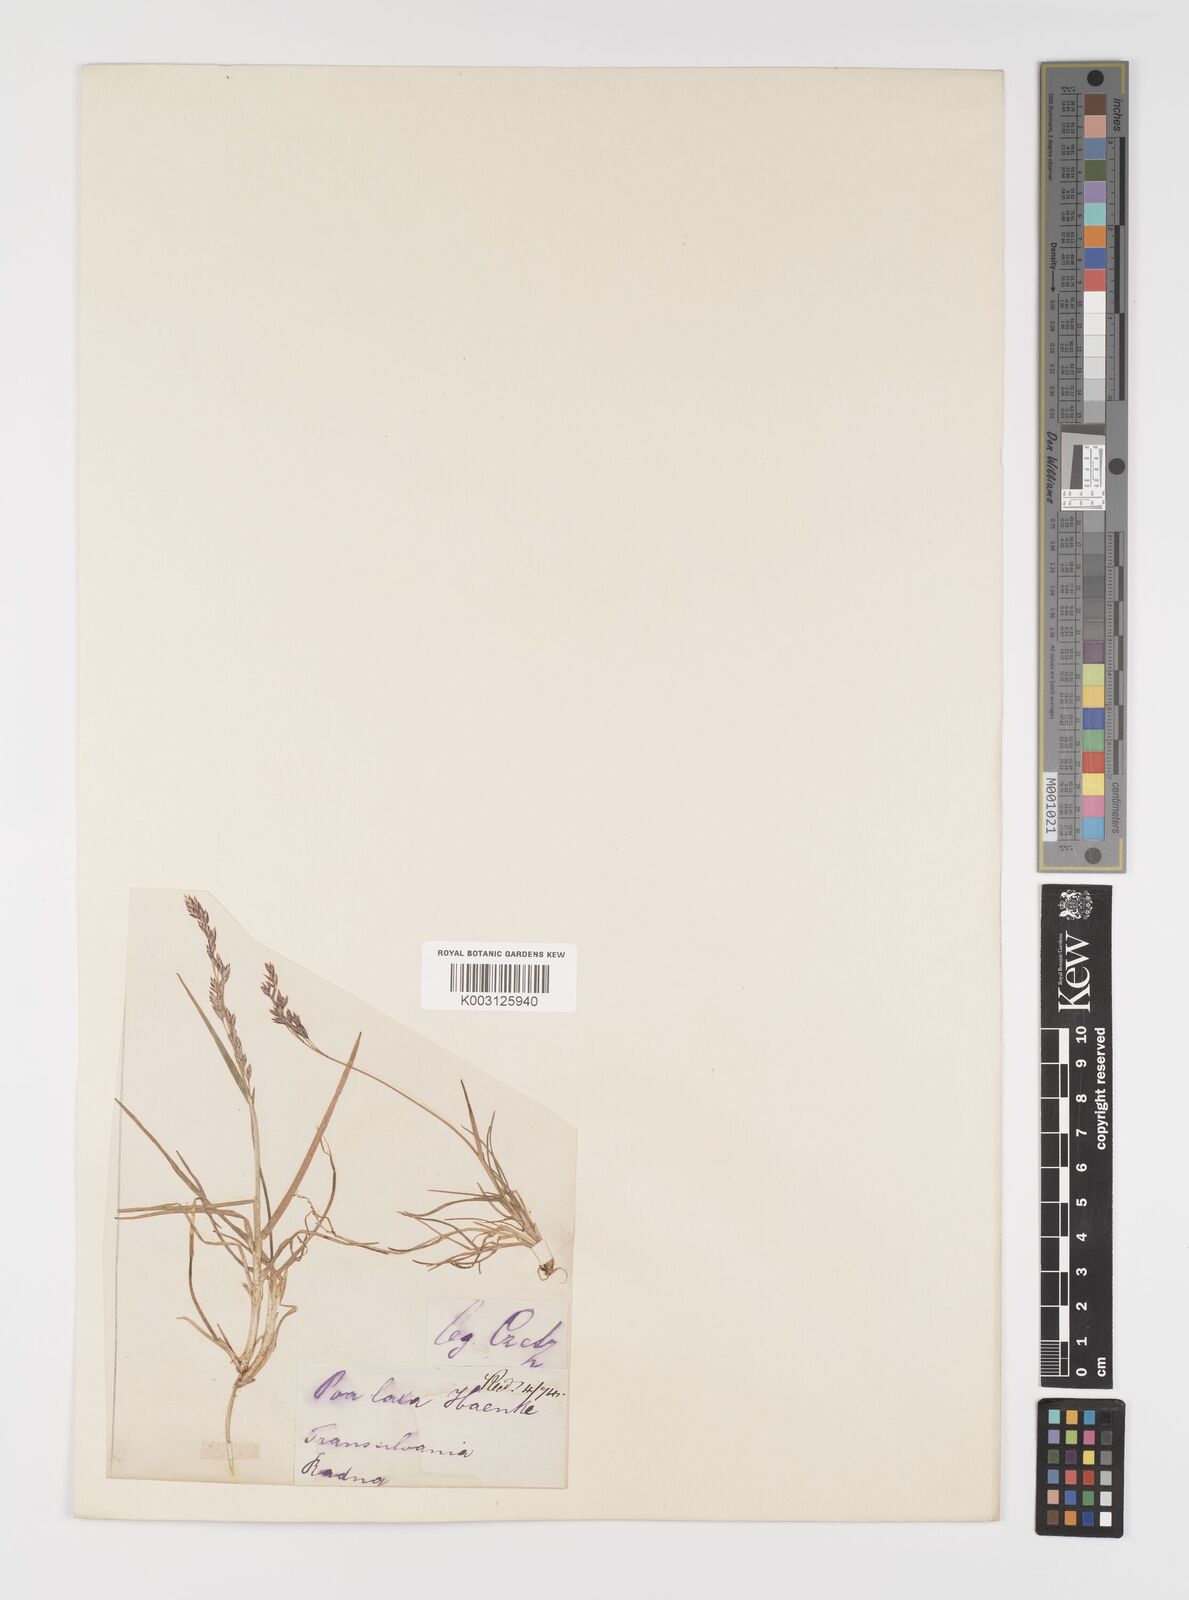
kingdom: Plantae
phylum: Tracheophyta
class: Liliopsida
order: Poales
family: Poaceae
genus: Poa
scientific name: Poa laxa
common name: Lax bluegrass
